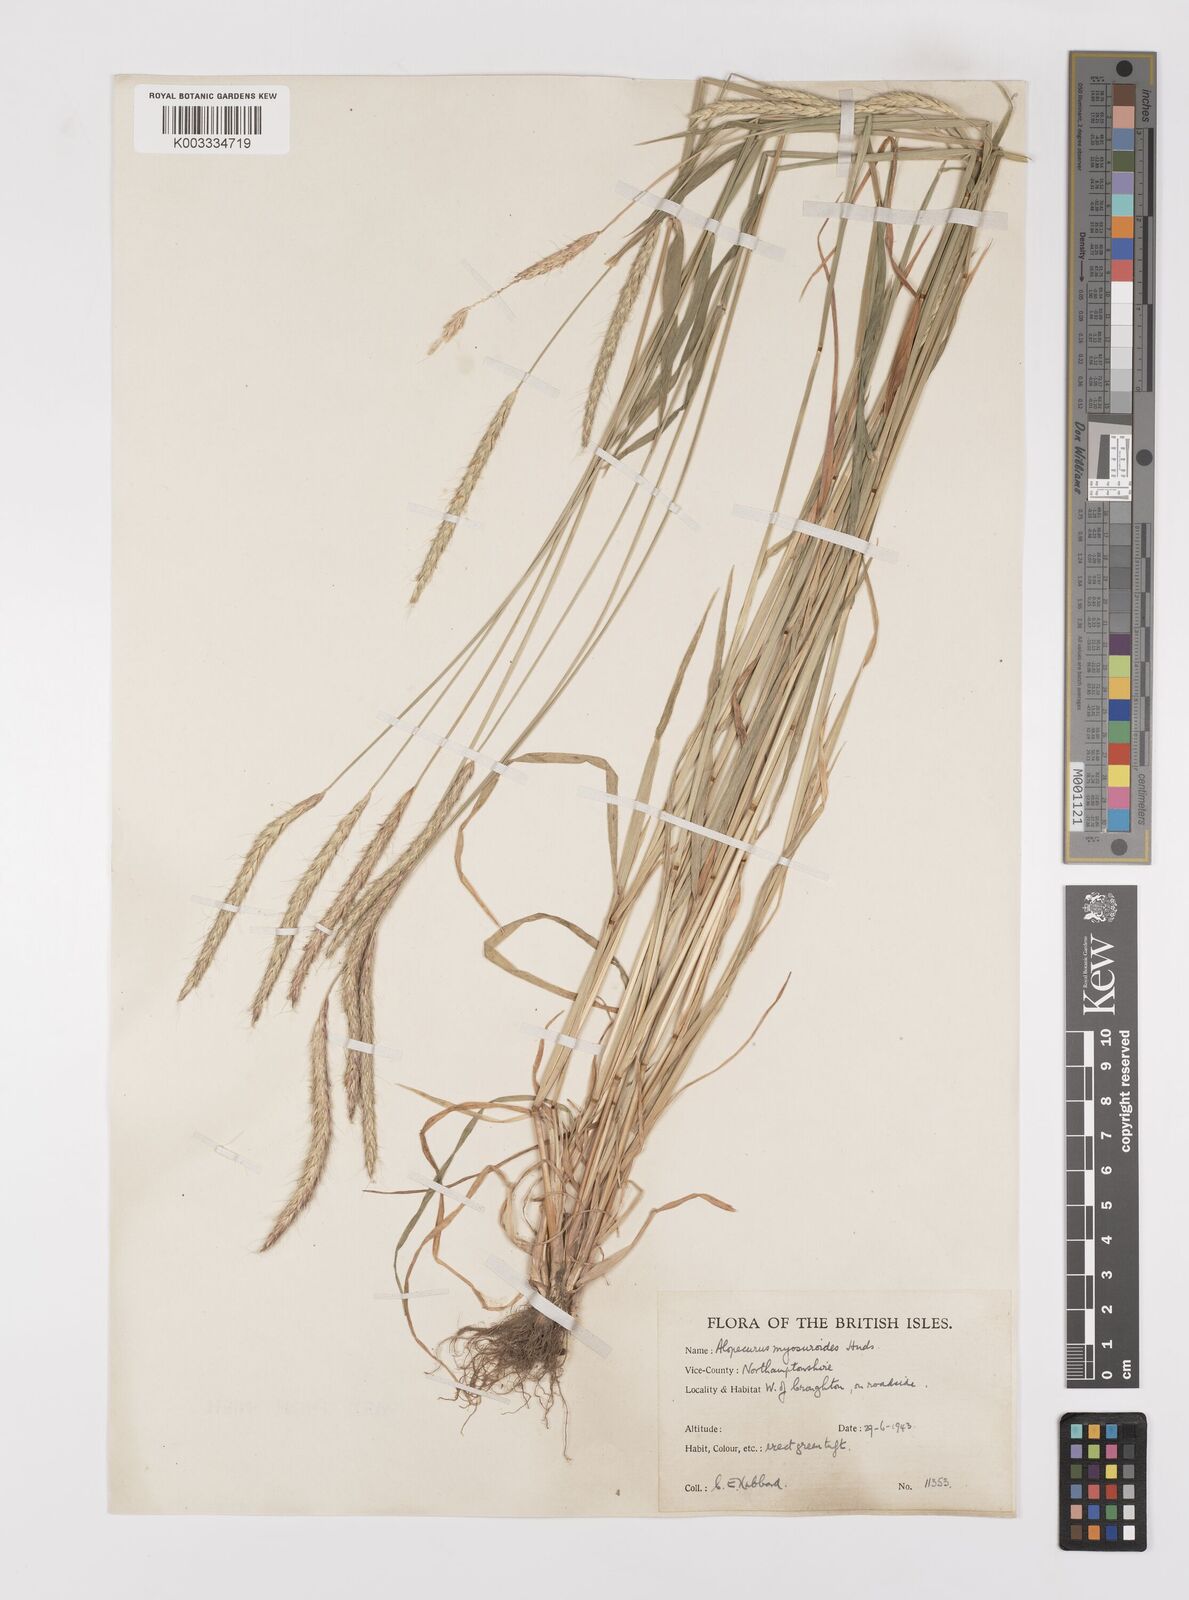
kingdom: Plantae
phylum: Tracheophyta
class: Liliopsida
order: Poales
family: Poaceae
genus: Alopecurus
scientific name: Alopecurus myosuroides
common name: Black-grass
